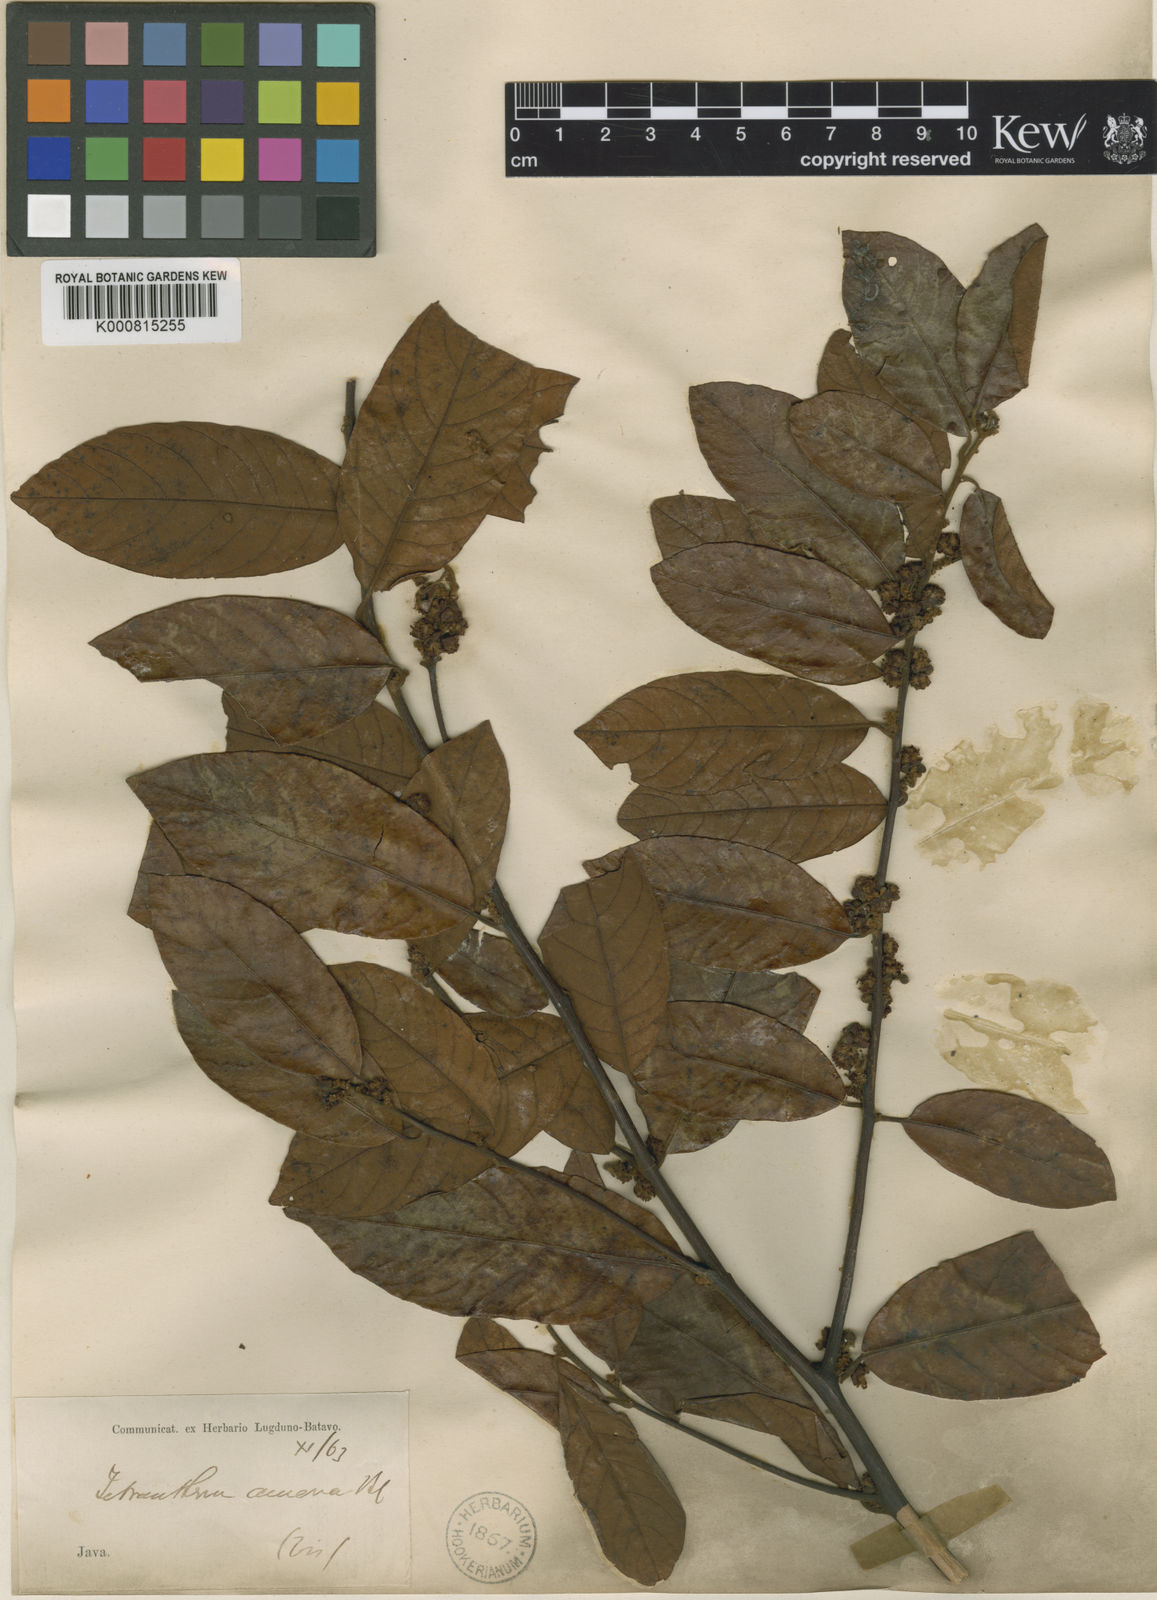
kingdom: Plantae
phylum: Tracheophyta
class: Magnoliopsida
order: Laurales
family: Lauraceae
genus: Litsea
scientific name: Litsea umbellata
